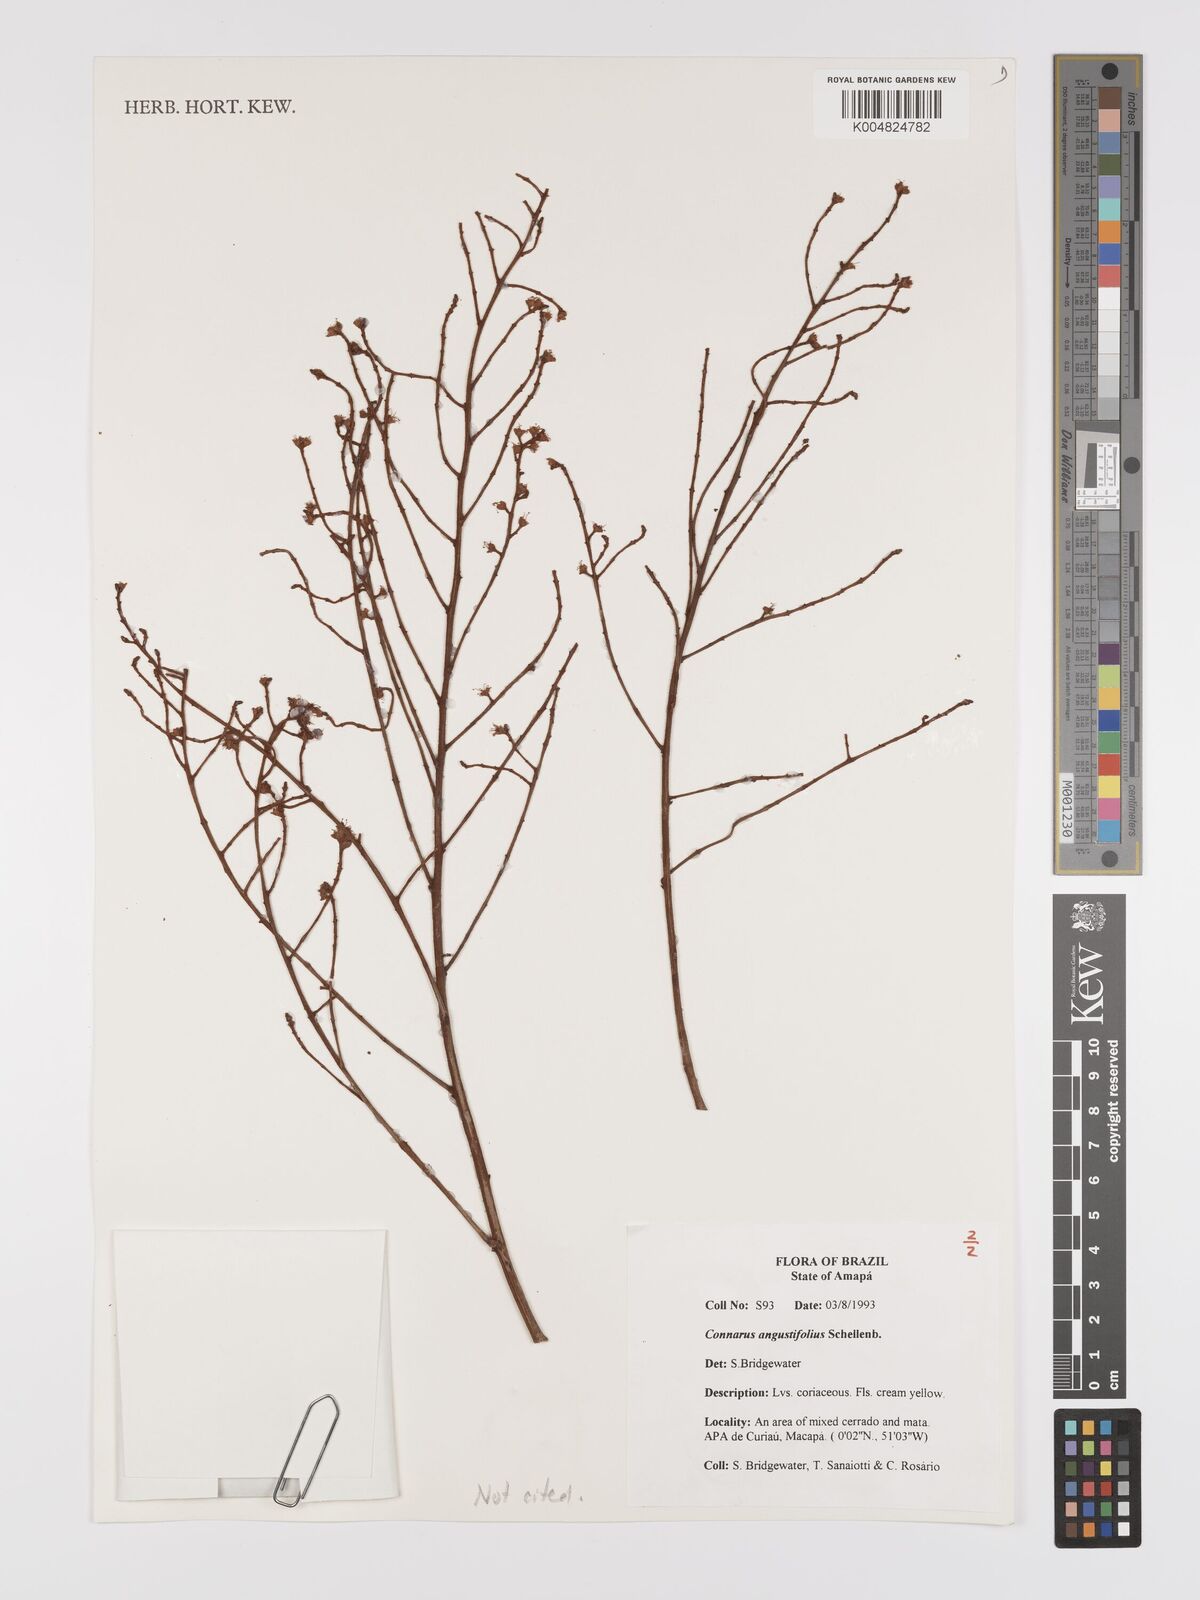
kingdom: Plantae
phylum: Tracheophyta
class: Magnoliopsida
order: Oxalidales
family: Connaraceae
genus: Connarus
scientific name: Connarus perrottetii
